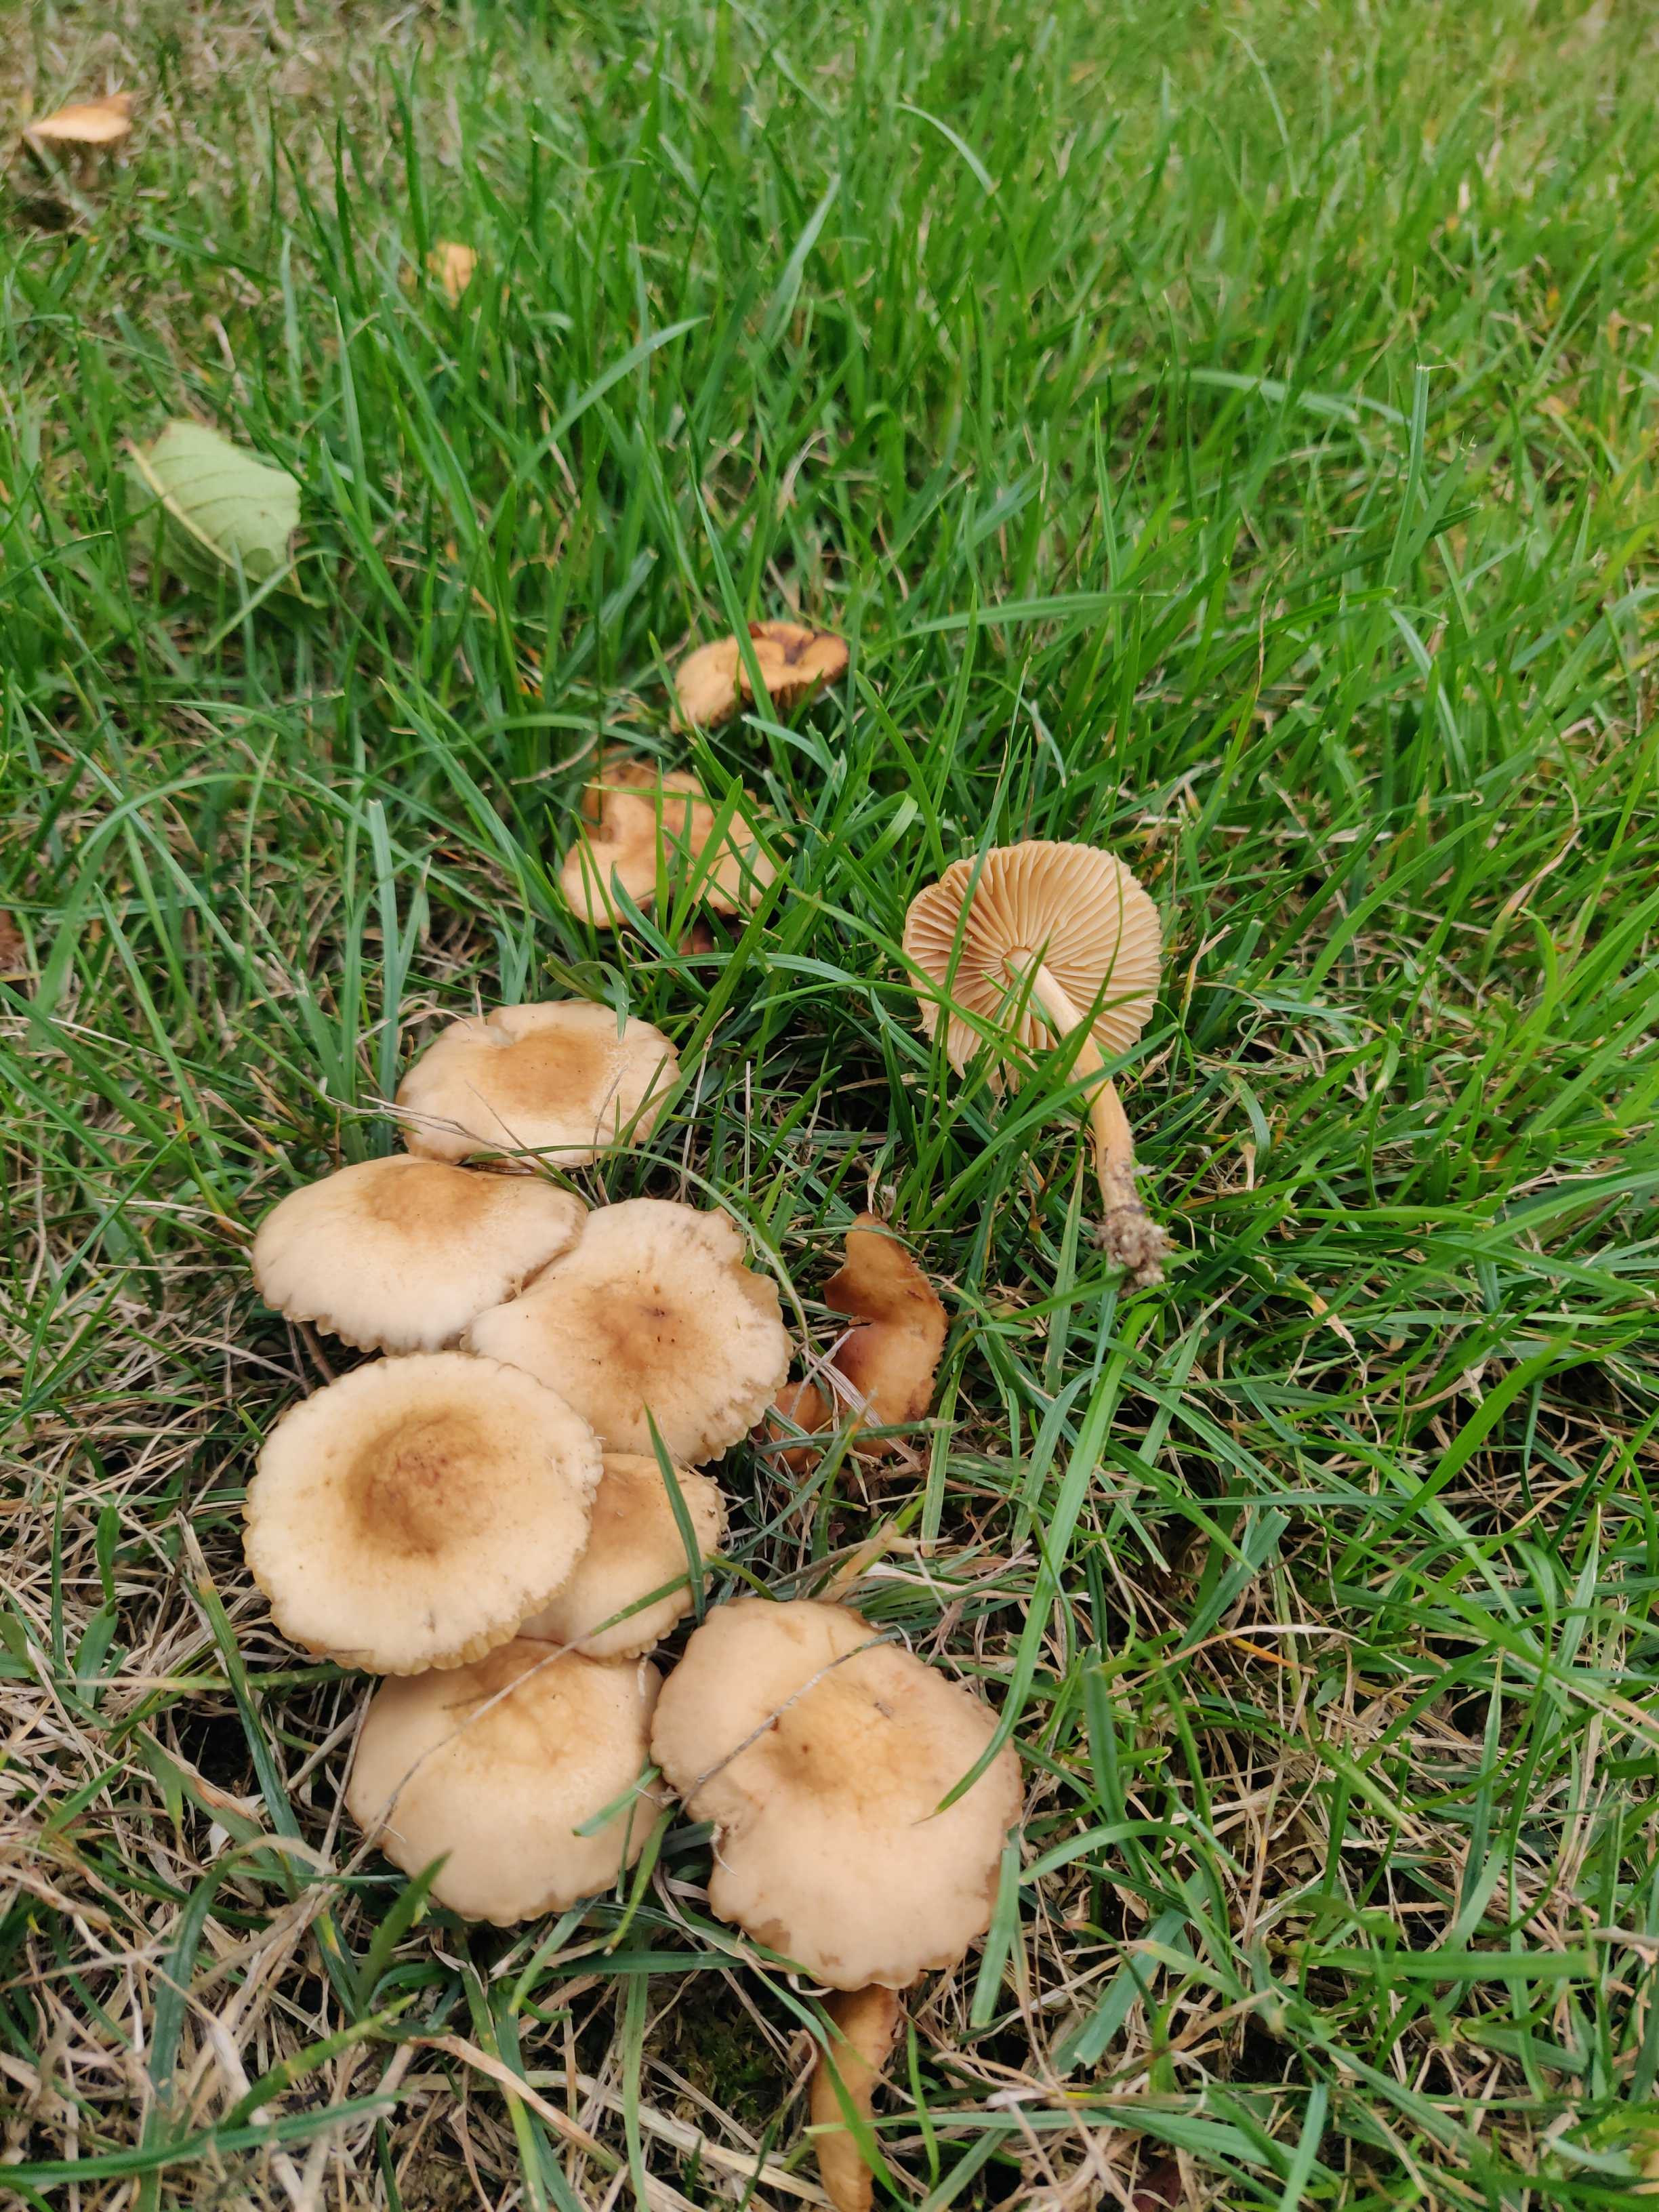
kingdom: Fungi
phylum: Basidiomycota
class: Agaricomycetes
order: Agaricales
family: Marasmiaceae
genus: Marasmius
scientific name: Marasmius oreades
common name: elledans-bruskhat
